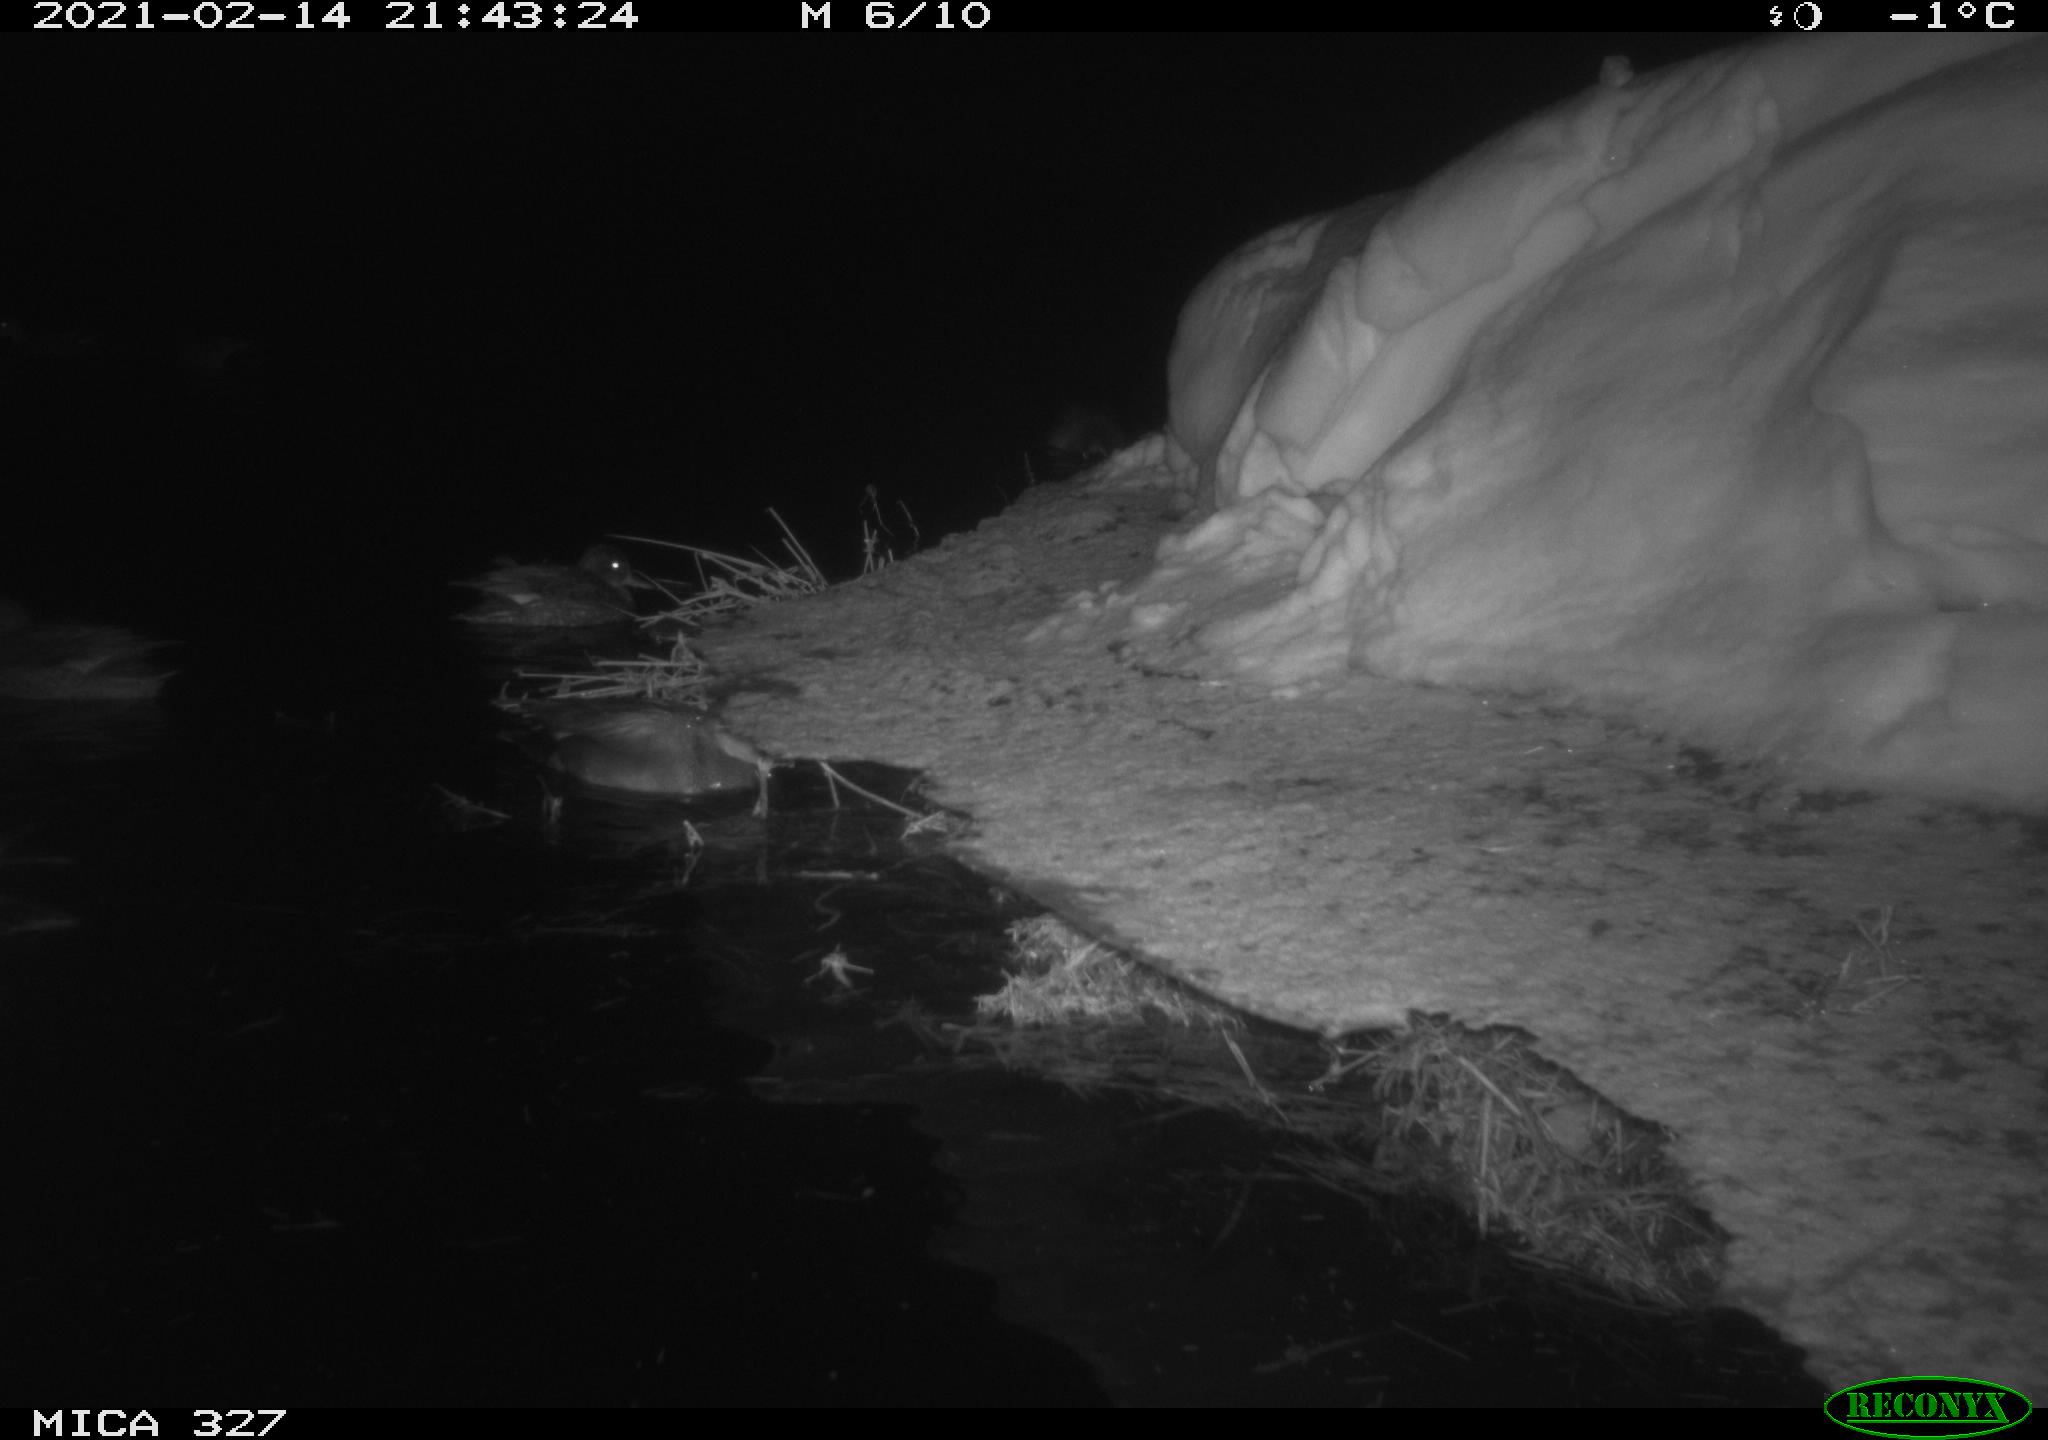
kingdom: Animalia
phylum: Chordata
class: Aves
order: Anseriformes
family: Anatidae
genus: Anas
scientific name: Anas
